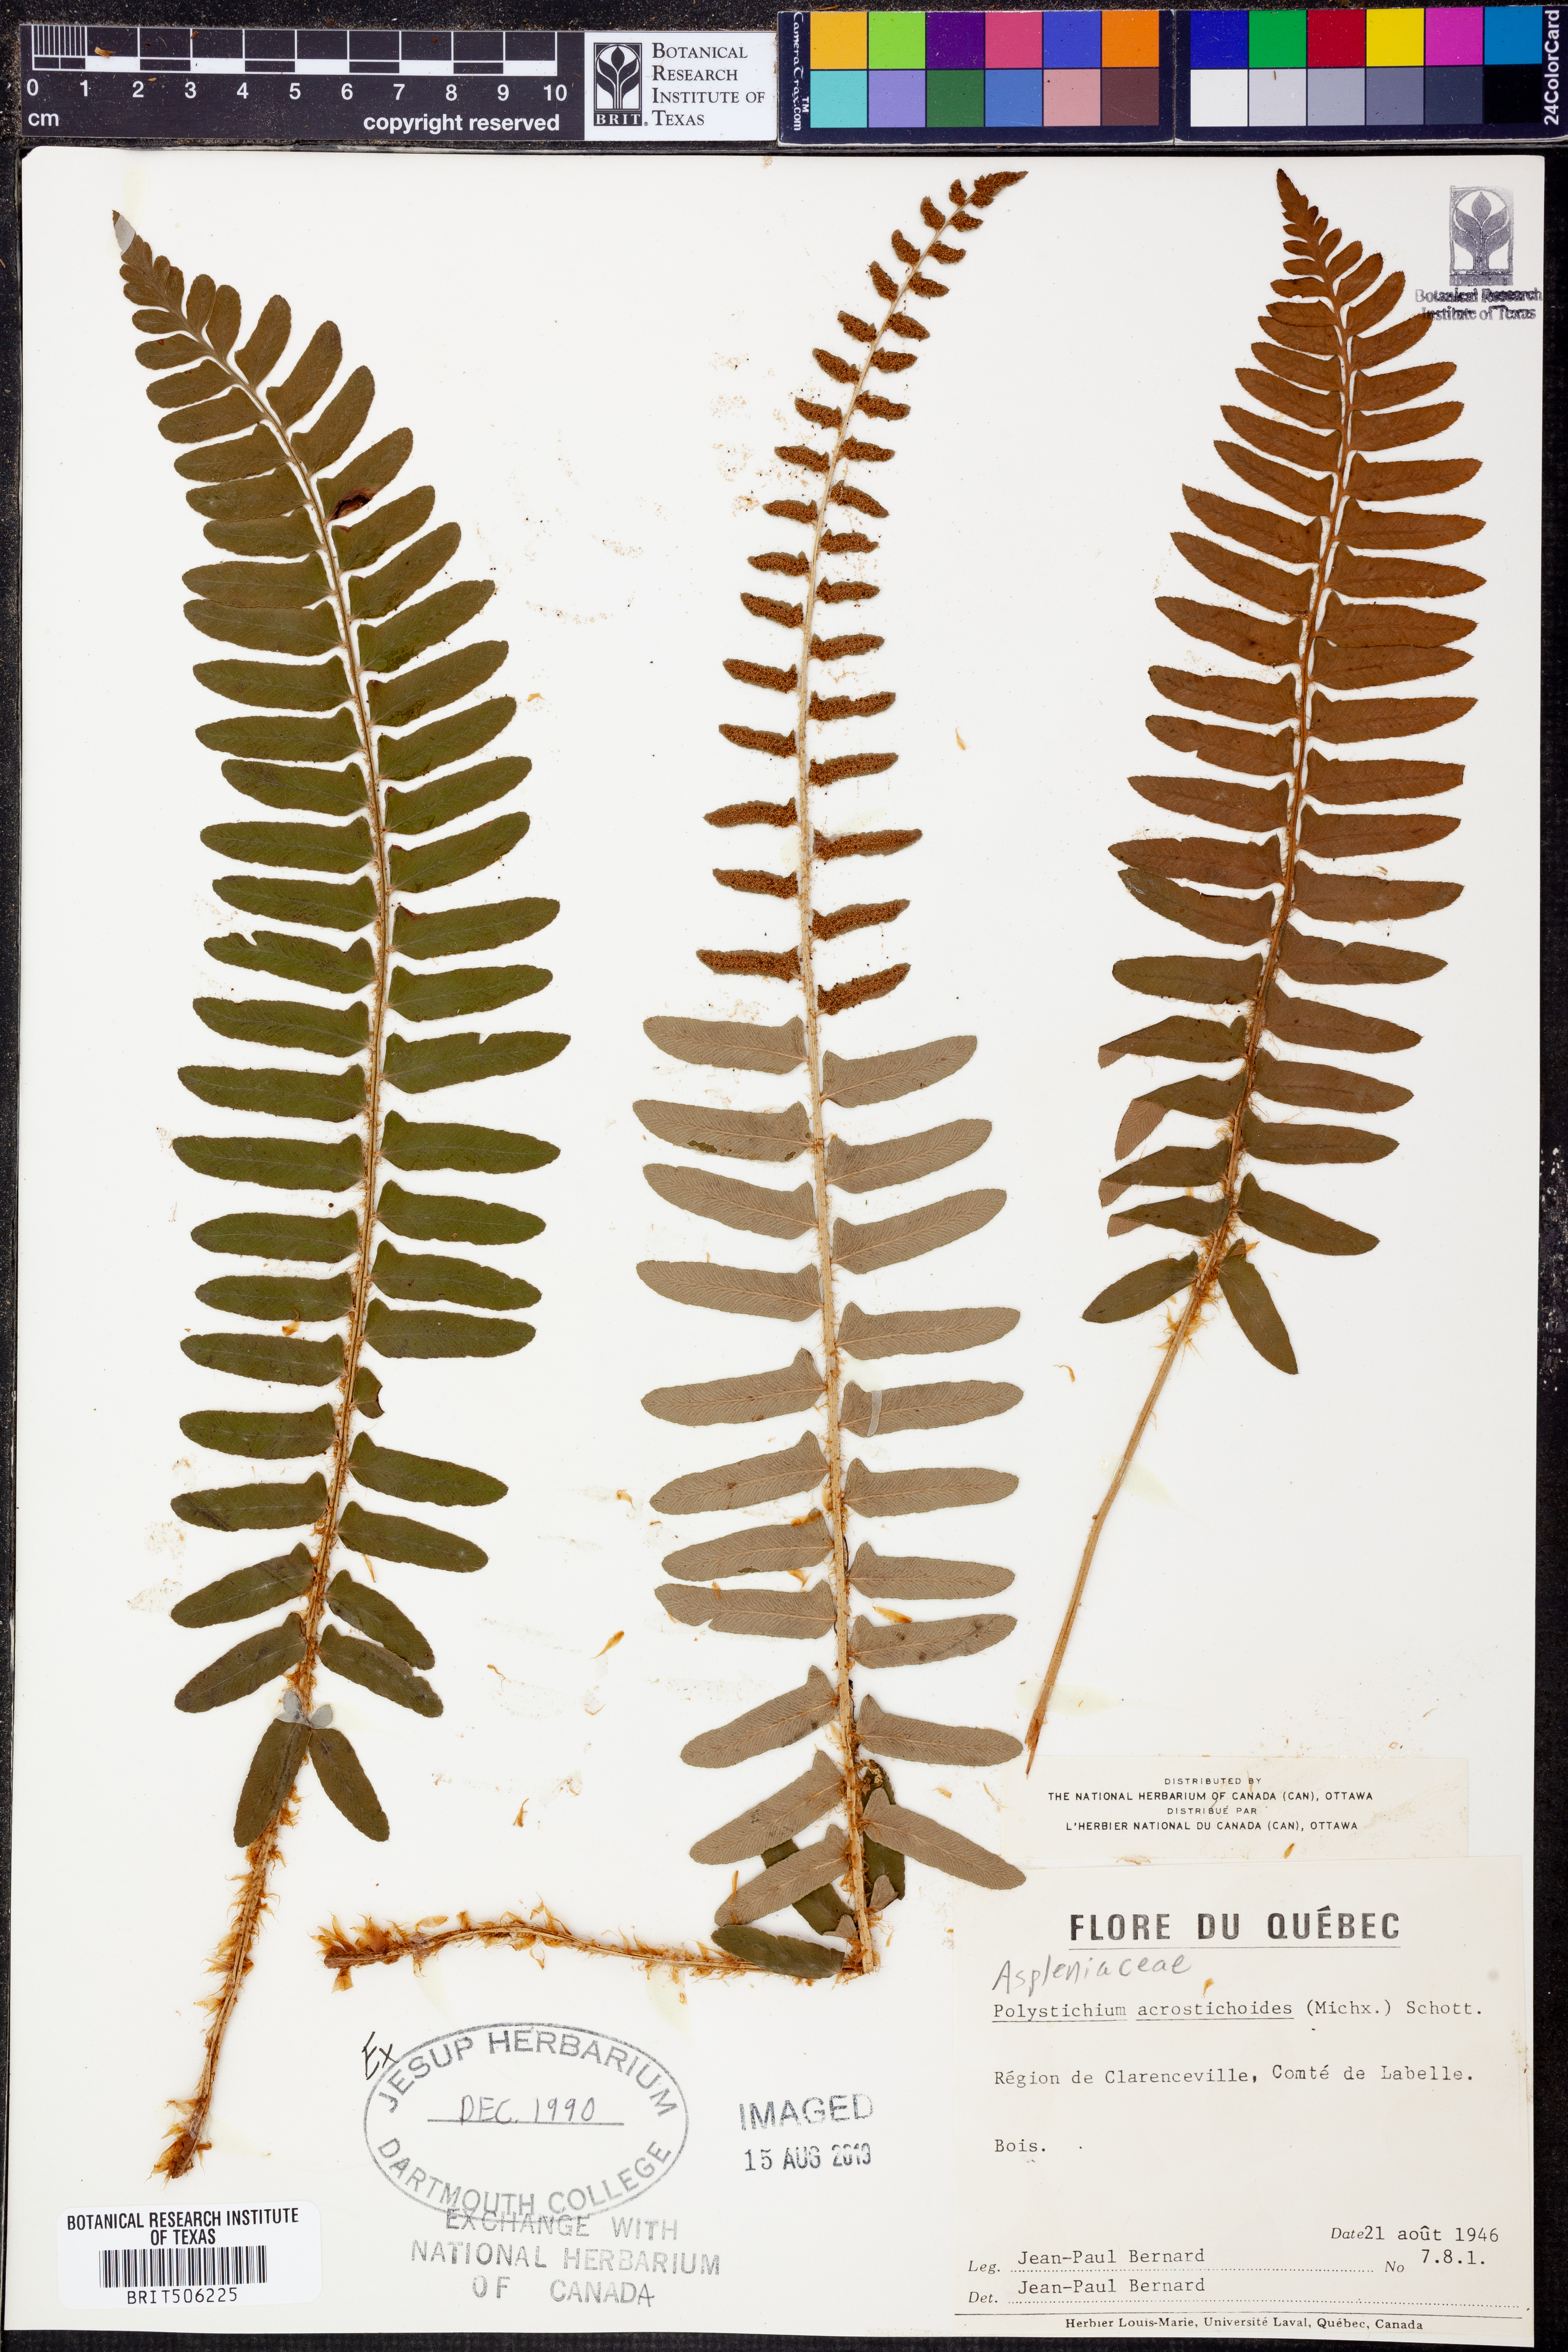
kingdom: Plantae
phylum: Tracheophyta
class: Polypodiopsida
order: Polypodiales
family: Dryopteridaceae
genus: Polystichum
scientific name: Polystichum acrostichoides
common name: Christmas fern
